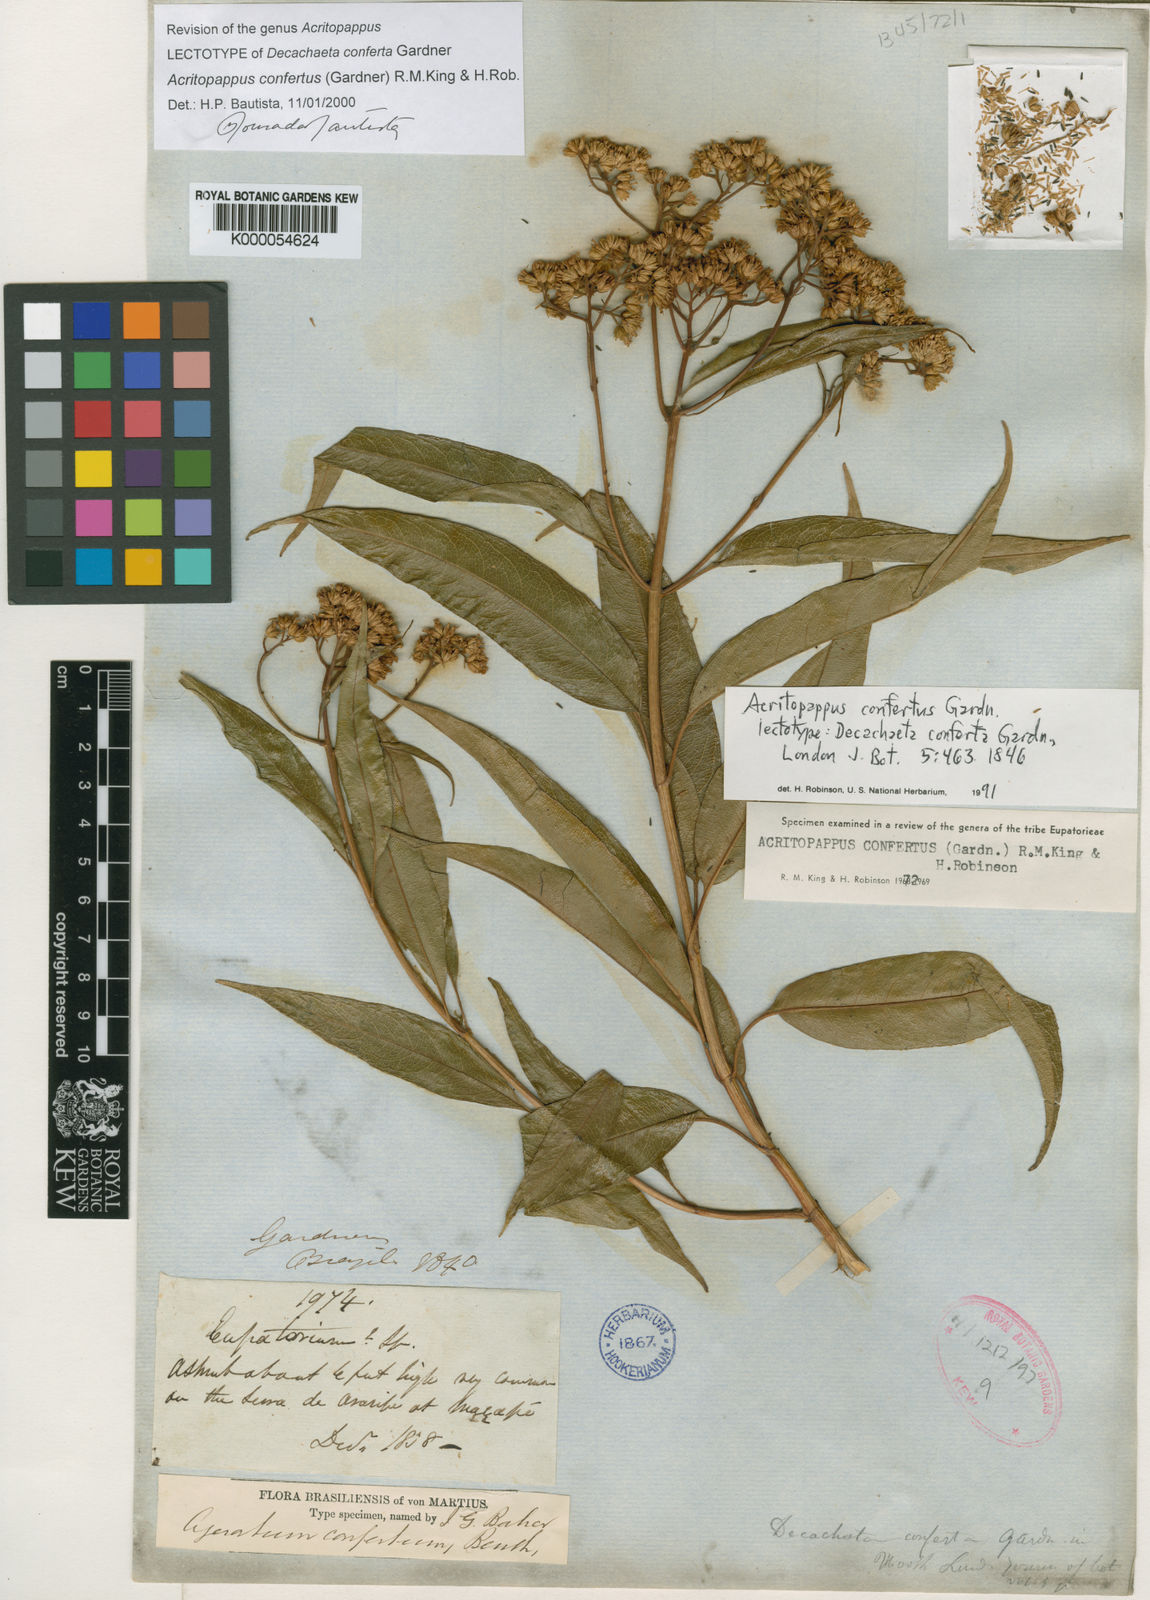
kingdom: Plantae
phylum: Tracheophyta
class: Magnoliopsida
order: Asterales
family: Asteraceae
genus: Acritopappus
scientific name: Acritopappus confertus
